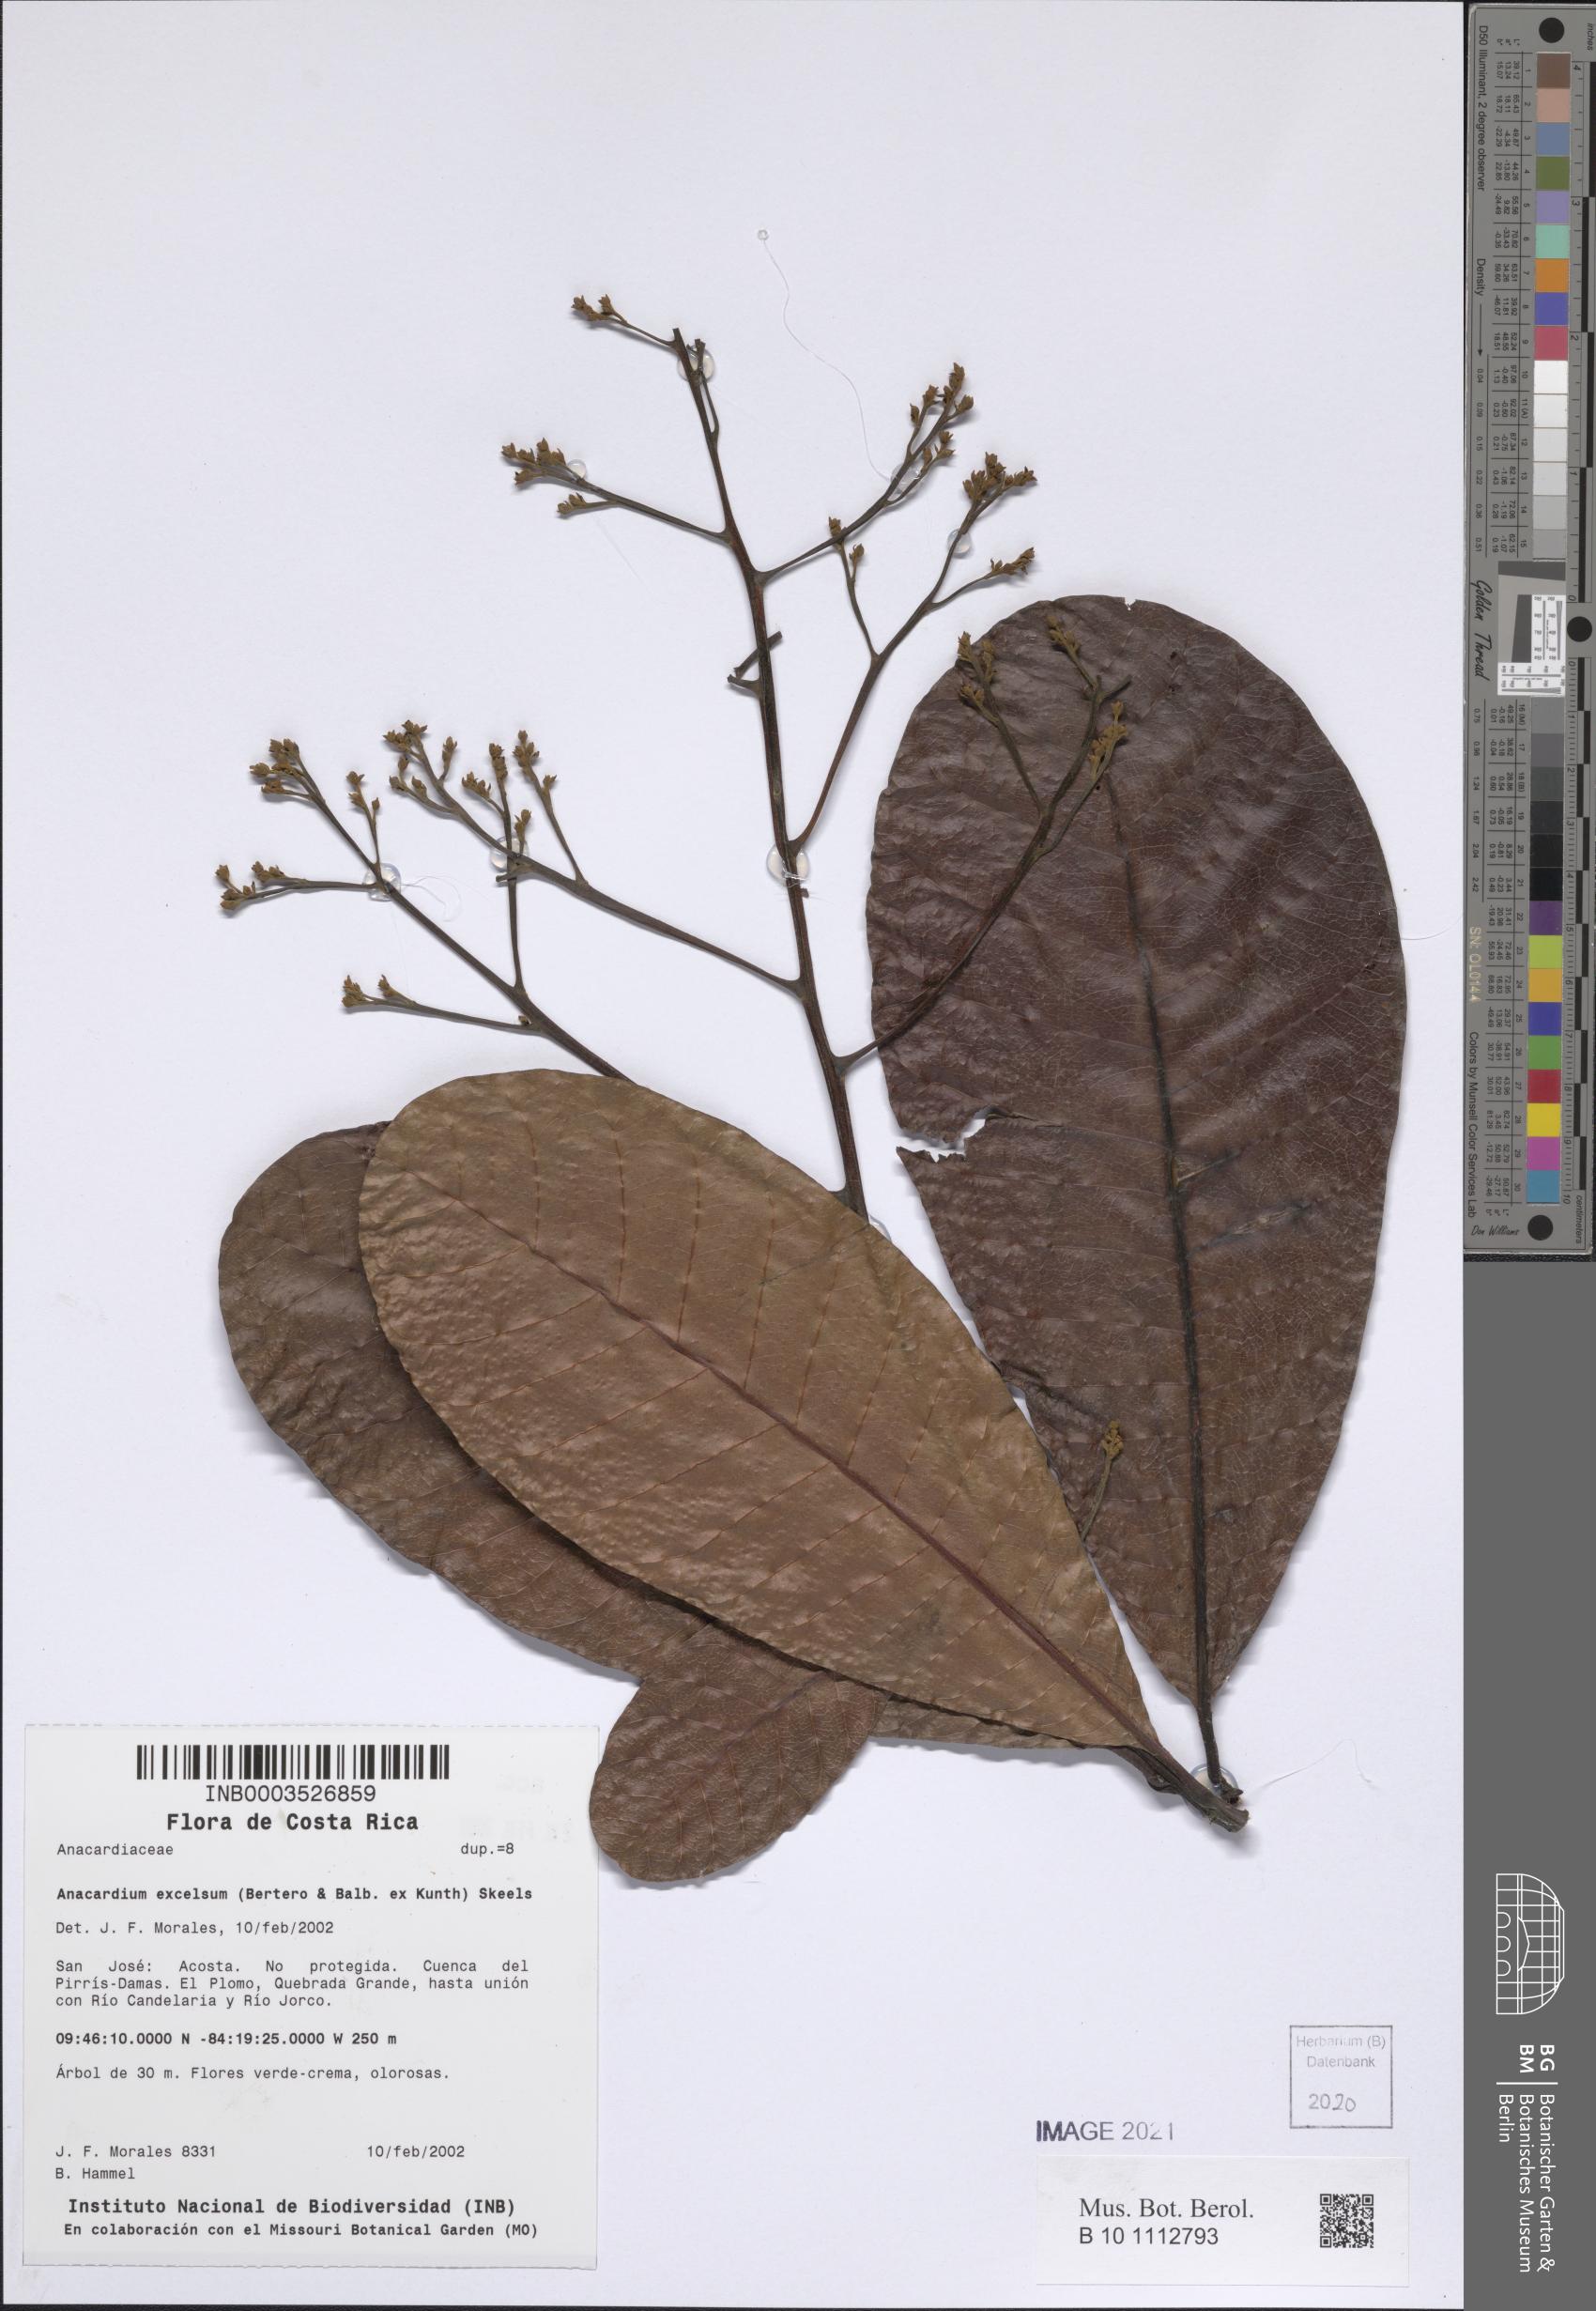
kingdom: Plantae
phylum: Tracheophyta
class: Magnoliopsida
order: Sapindales
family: Anacardiaceae
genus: Anacardium
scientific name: Anacardium excelsum
